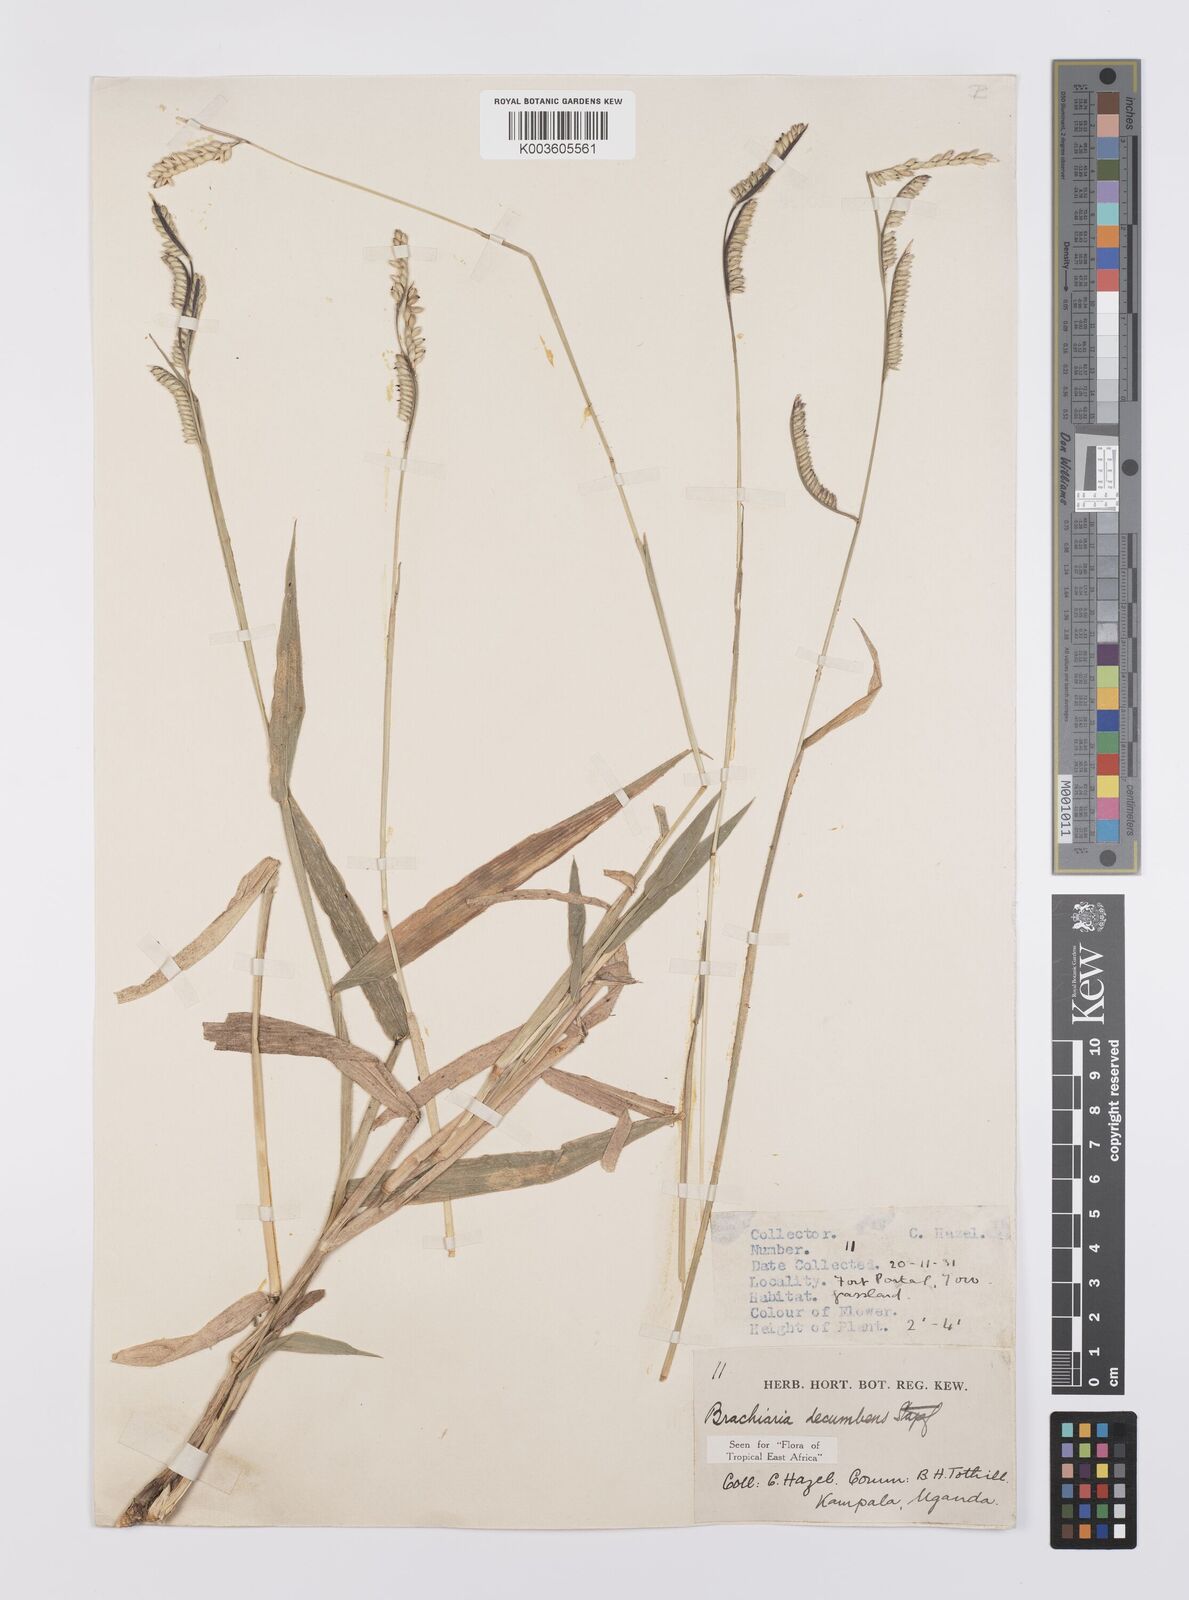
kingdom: Plantae
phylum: Tracheophyta
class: Liliopsida
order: Poales
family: Poaceae
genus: Urochloa
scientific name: Urochloa eminii
